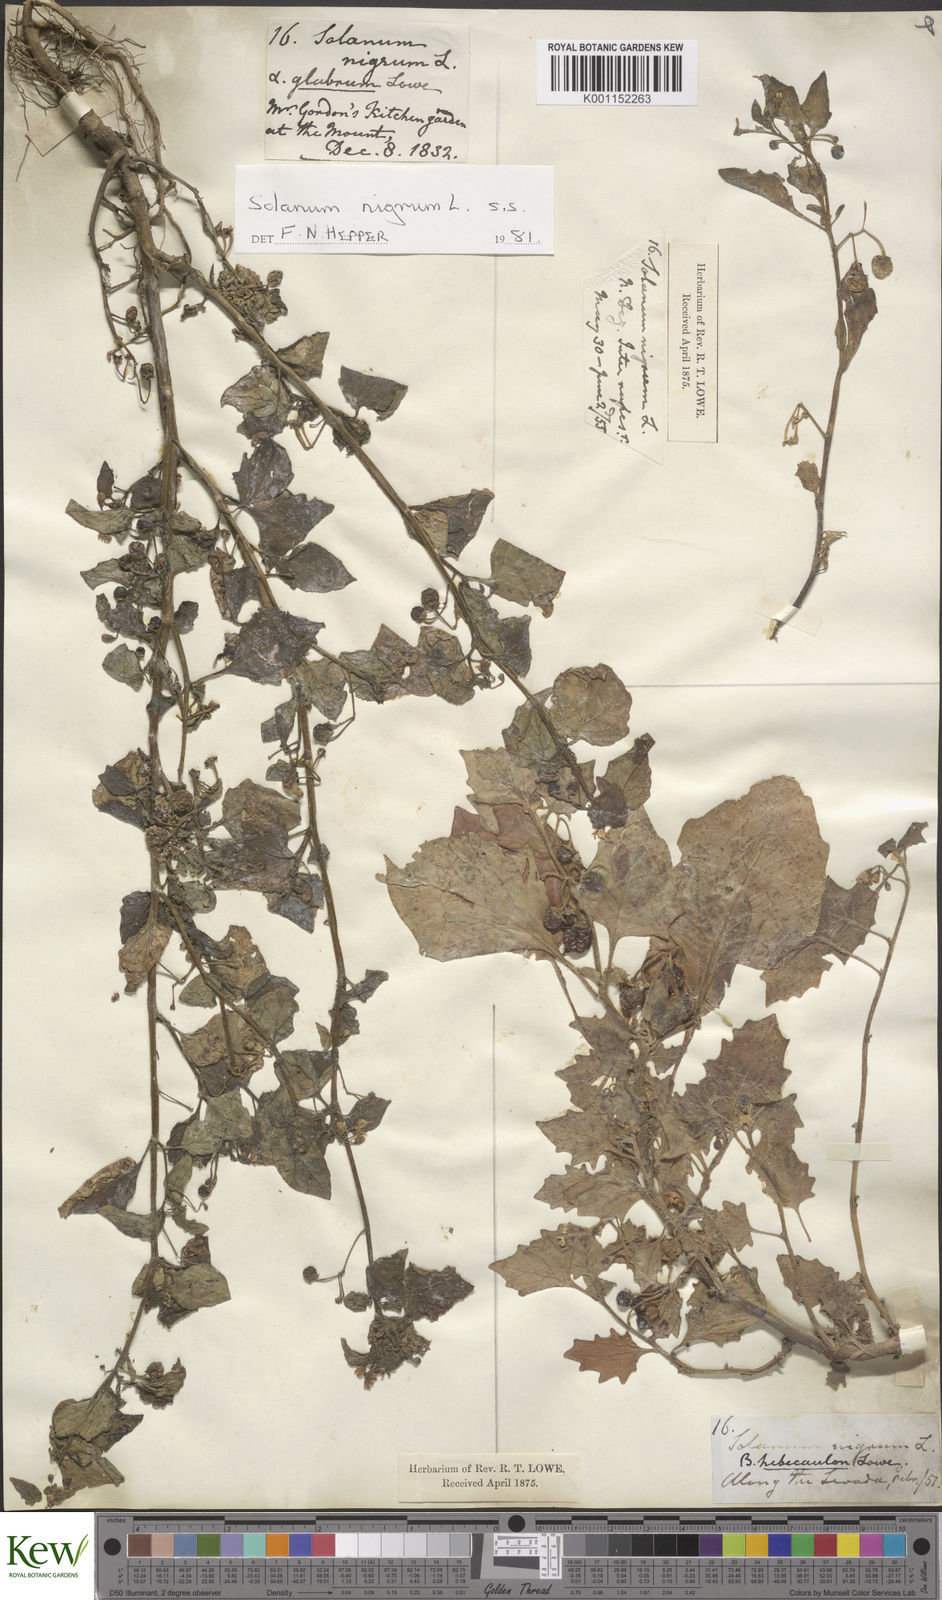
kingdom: Plantae
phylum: Tracheophyta
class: Magnoliopsida
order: Solanales
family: Solanaceae
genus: Solanum
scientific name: Solanum villosum
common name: Red nightshade
